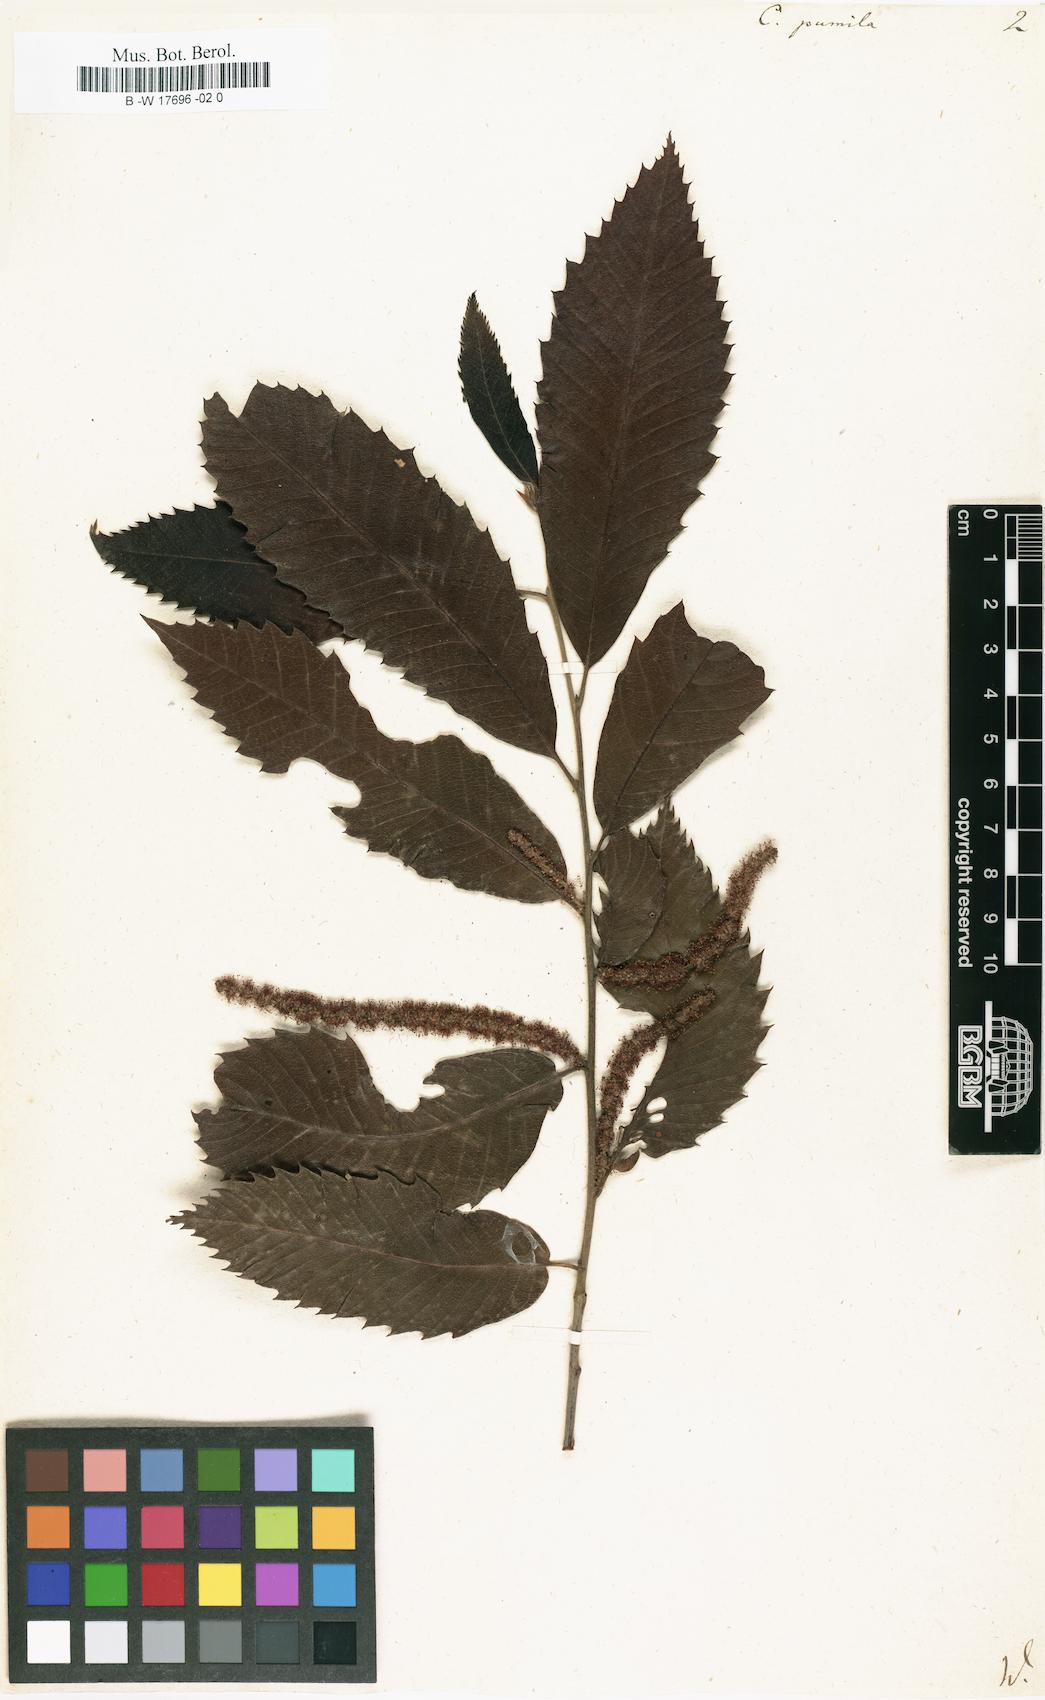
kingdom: Plantae
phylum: Tracheophyta
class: Magnoliopsida
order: Fagales
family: Fagaceae
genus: Castanea
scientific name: Castanea pumila
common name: Chinkapin
